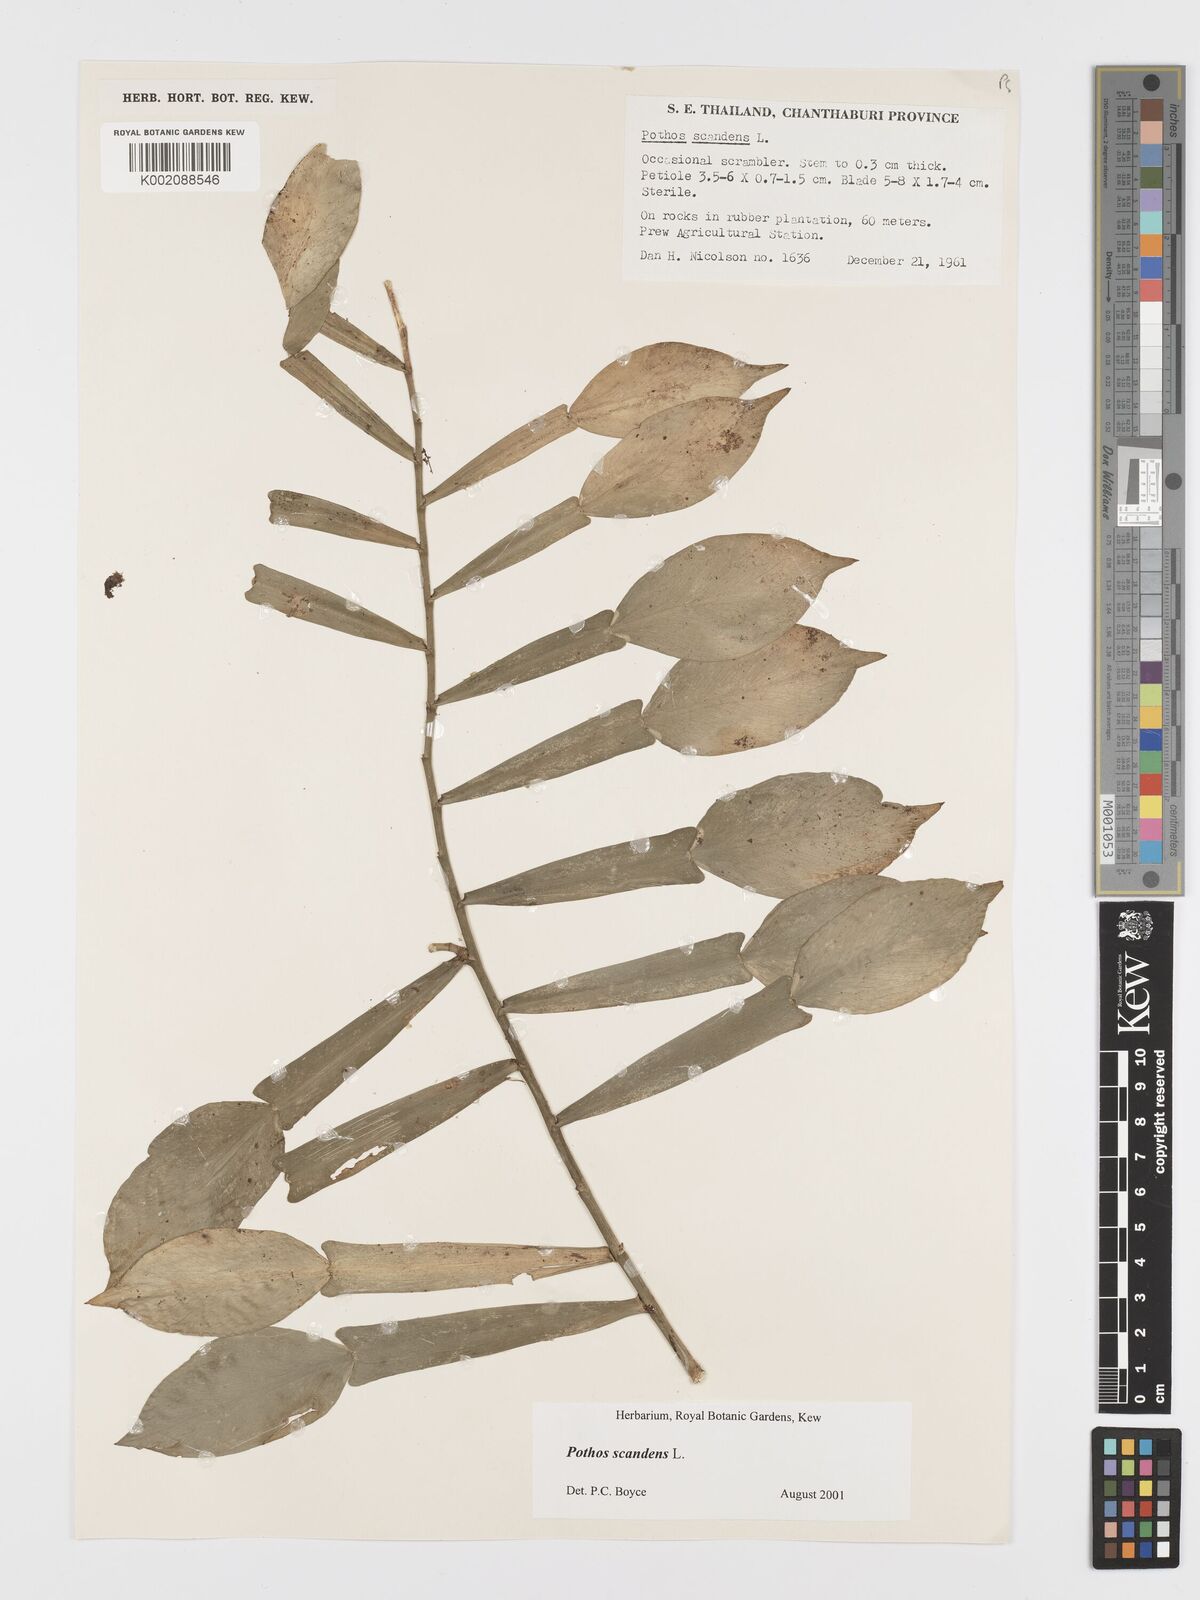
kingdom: Plantae
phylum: Tracheophyta
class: Liliopsida
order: Alismatales
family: Araceae
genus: Pothos
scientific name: Pothos scandens
